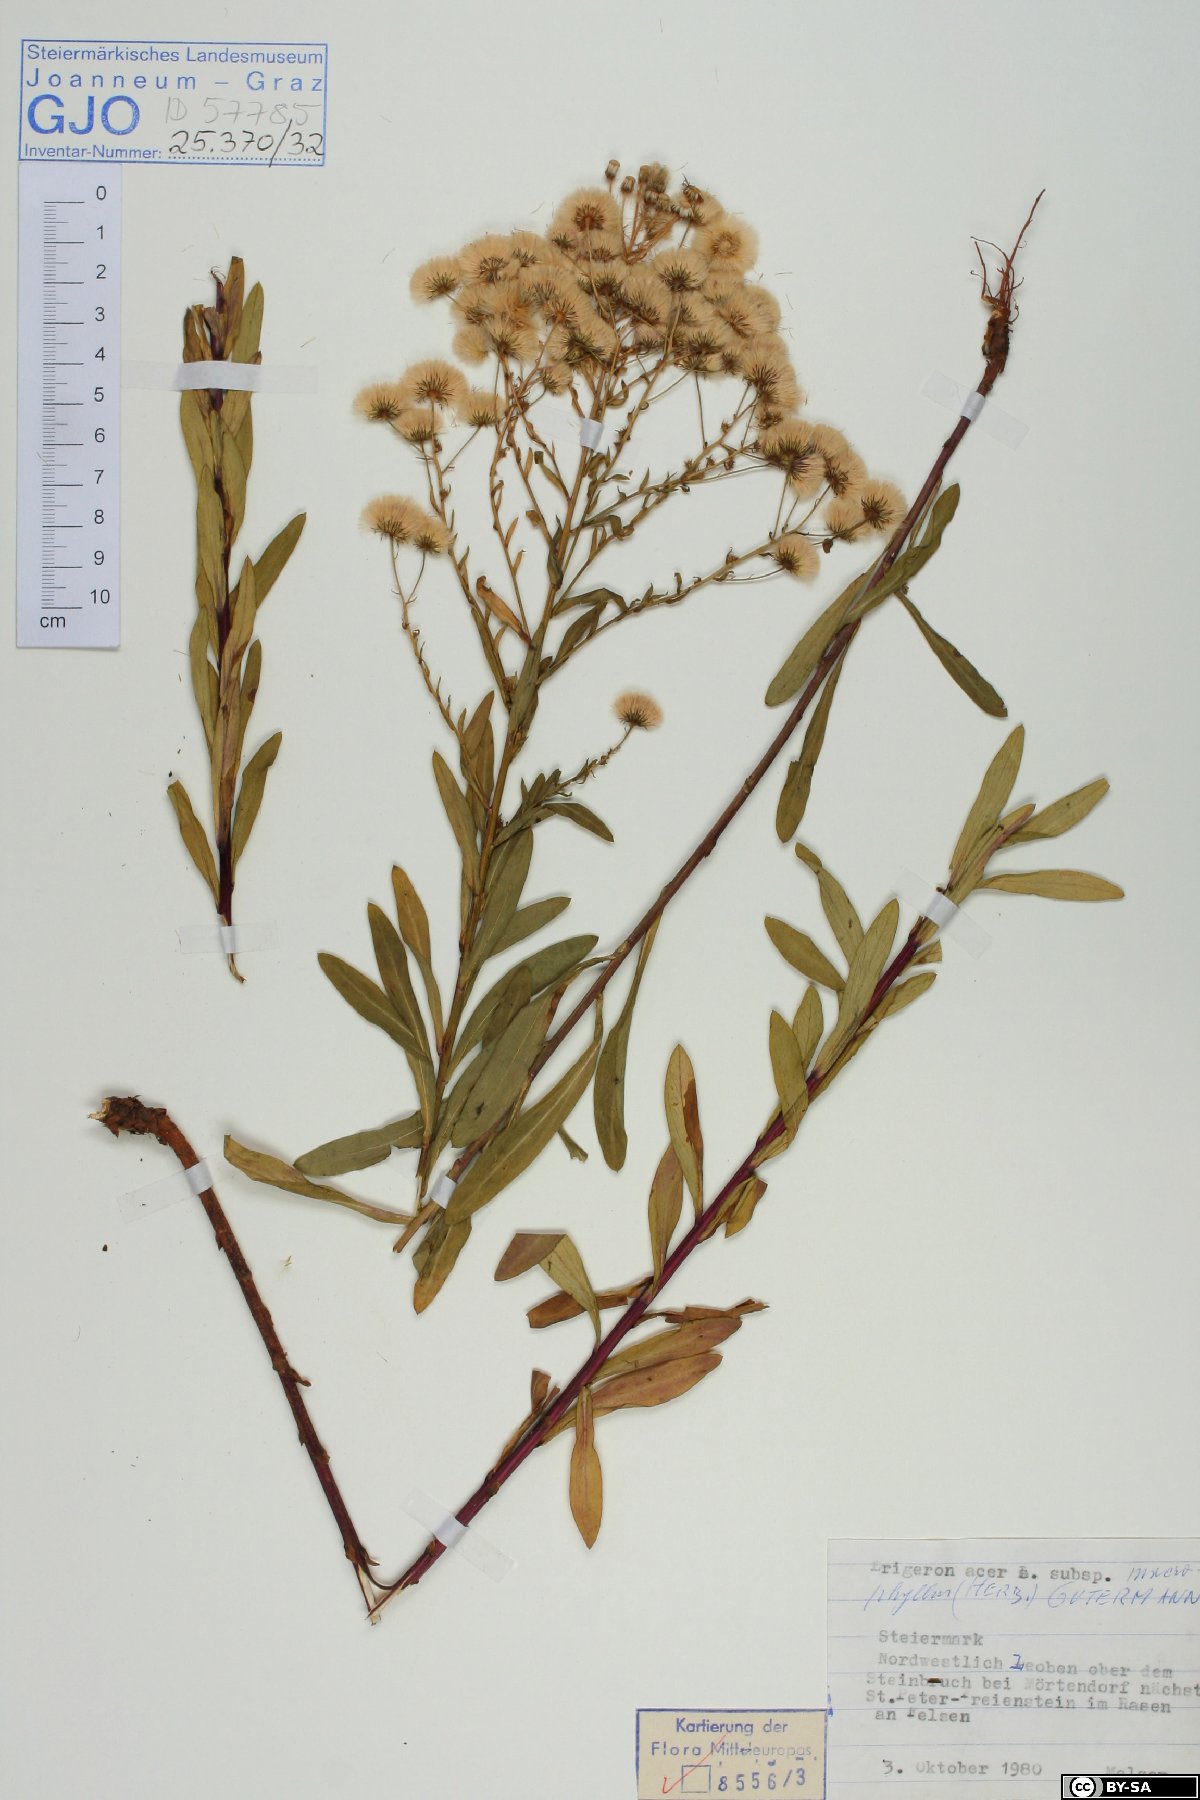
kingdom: Plantae
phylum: Tracheophyta
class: Magnoliopsida
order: Asterales
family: Asteraceae
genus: Erigeron
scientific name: Erigeron macrophyllus
